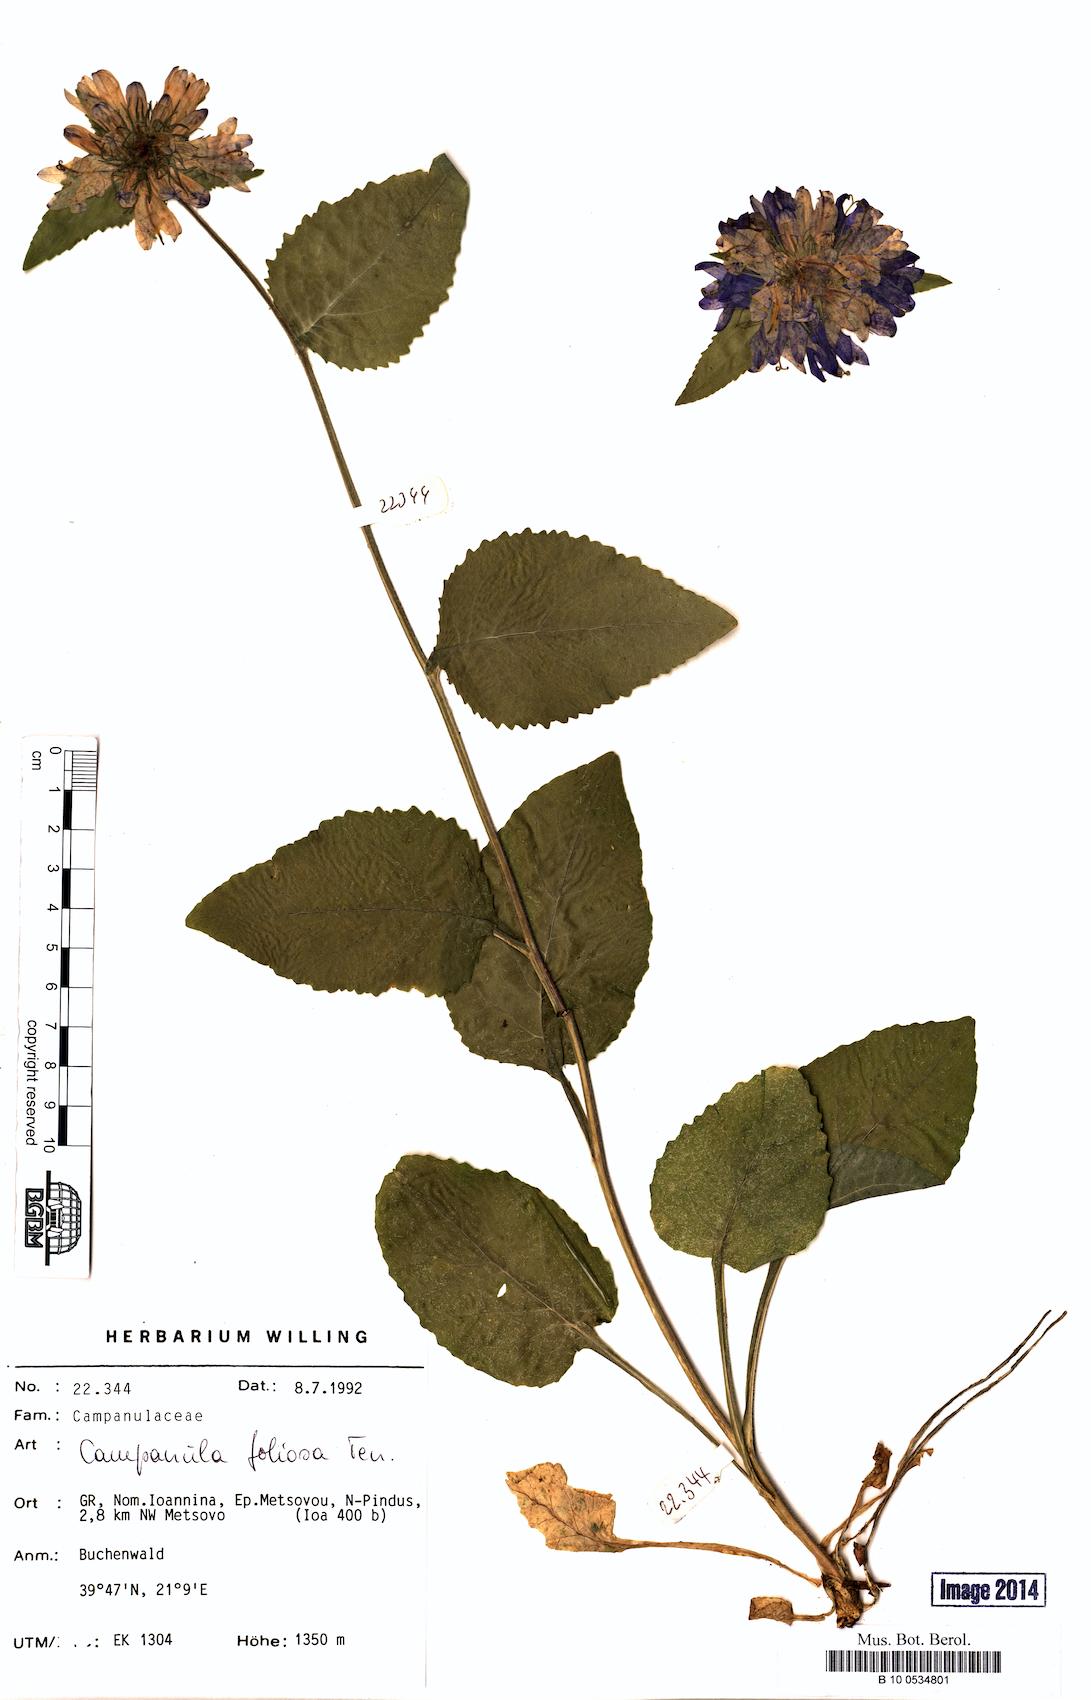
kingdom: Plantae
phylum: Tracheophyta
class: Magnoliopsida
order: Asterales
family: Campanulaceae
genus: Campanula
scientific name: Campanula foliosa
